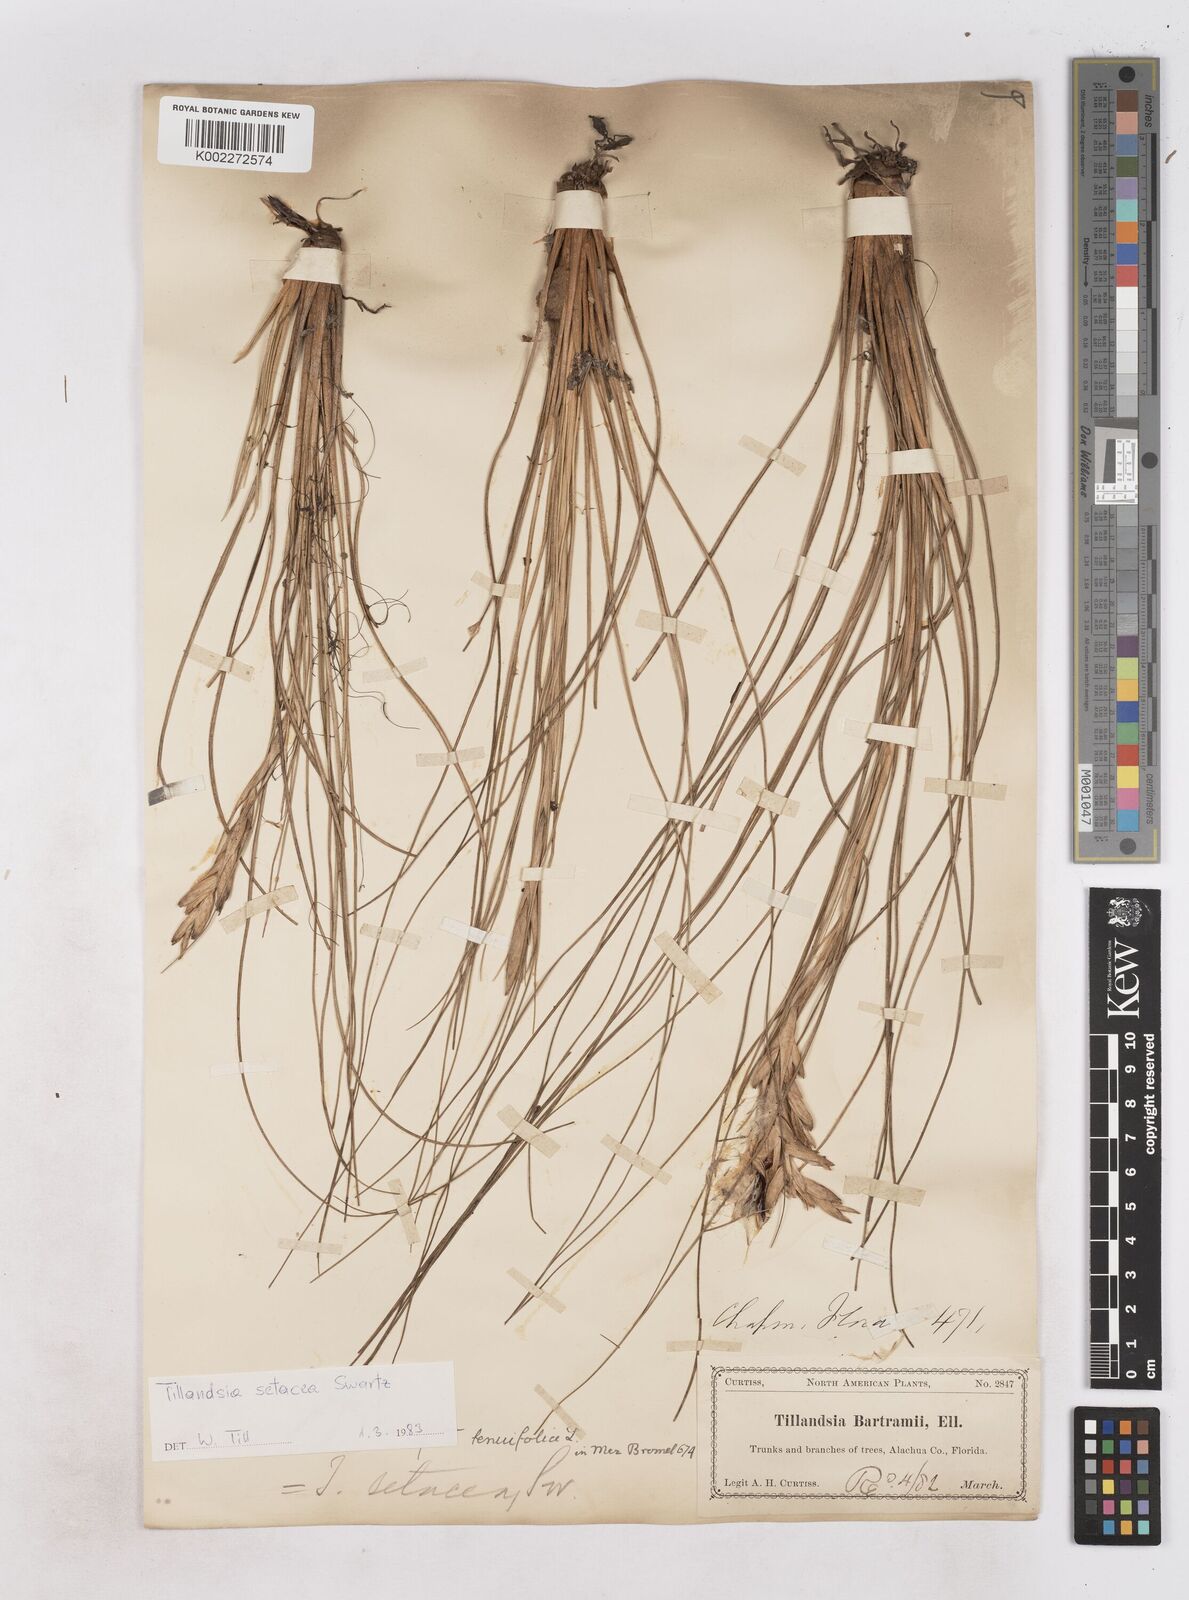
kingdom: Plantae
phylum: Tracheophyta
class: Liliopsida
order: Poales
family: Bromeliaceae
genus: Tillandsia
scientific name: Tillandsia
